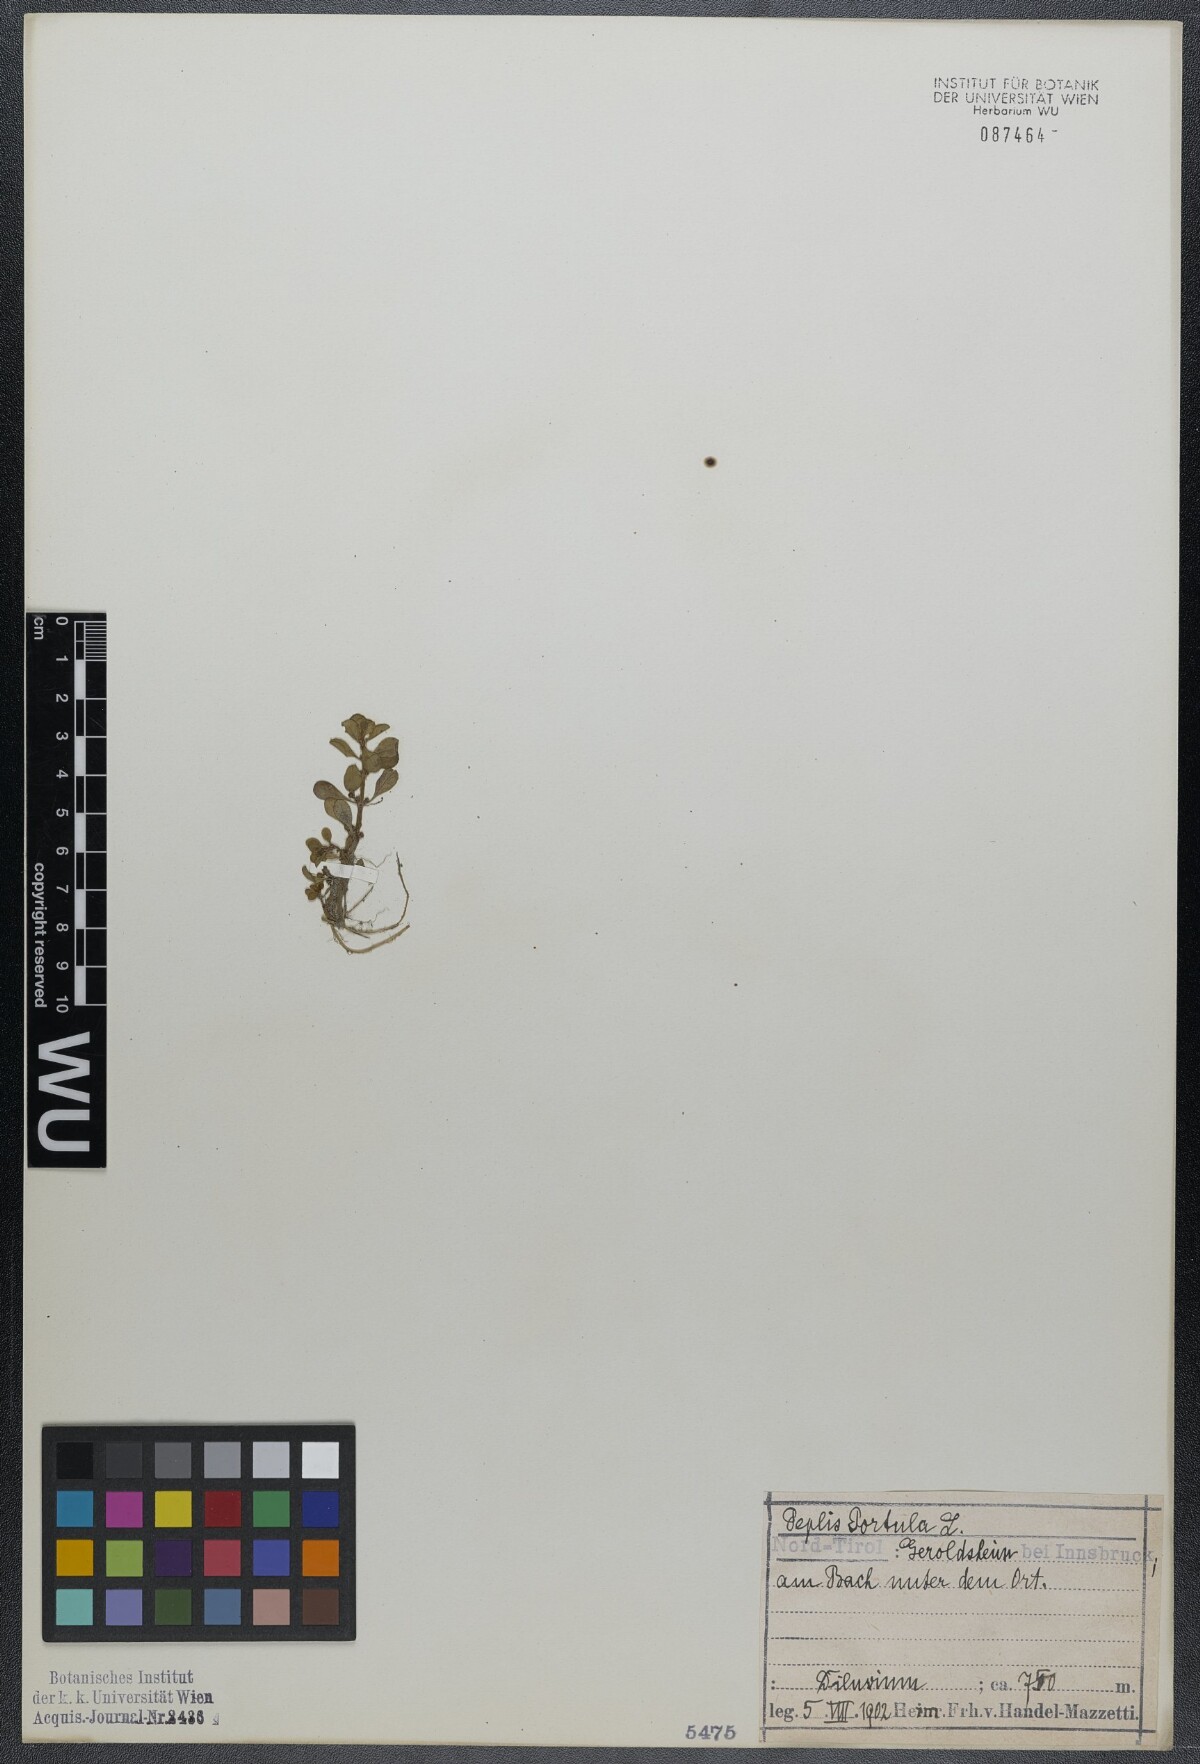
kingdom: Plantae
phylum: Tracheophyta
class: Magnoliopsida
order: Myrtales
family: Lythraceae
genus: Lythrum
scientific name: Lythrum portula
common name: Water purslane
